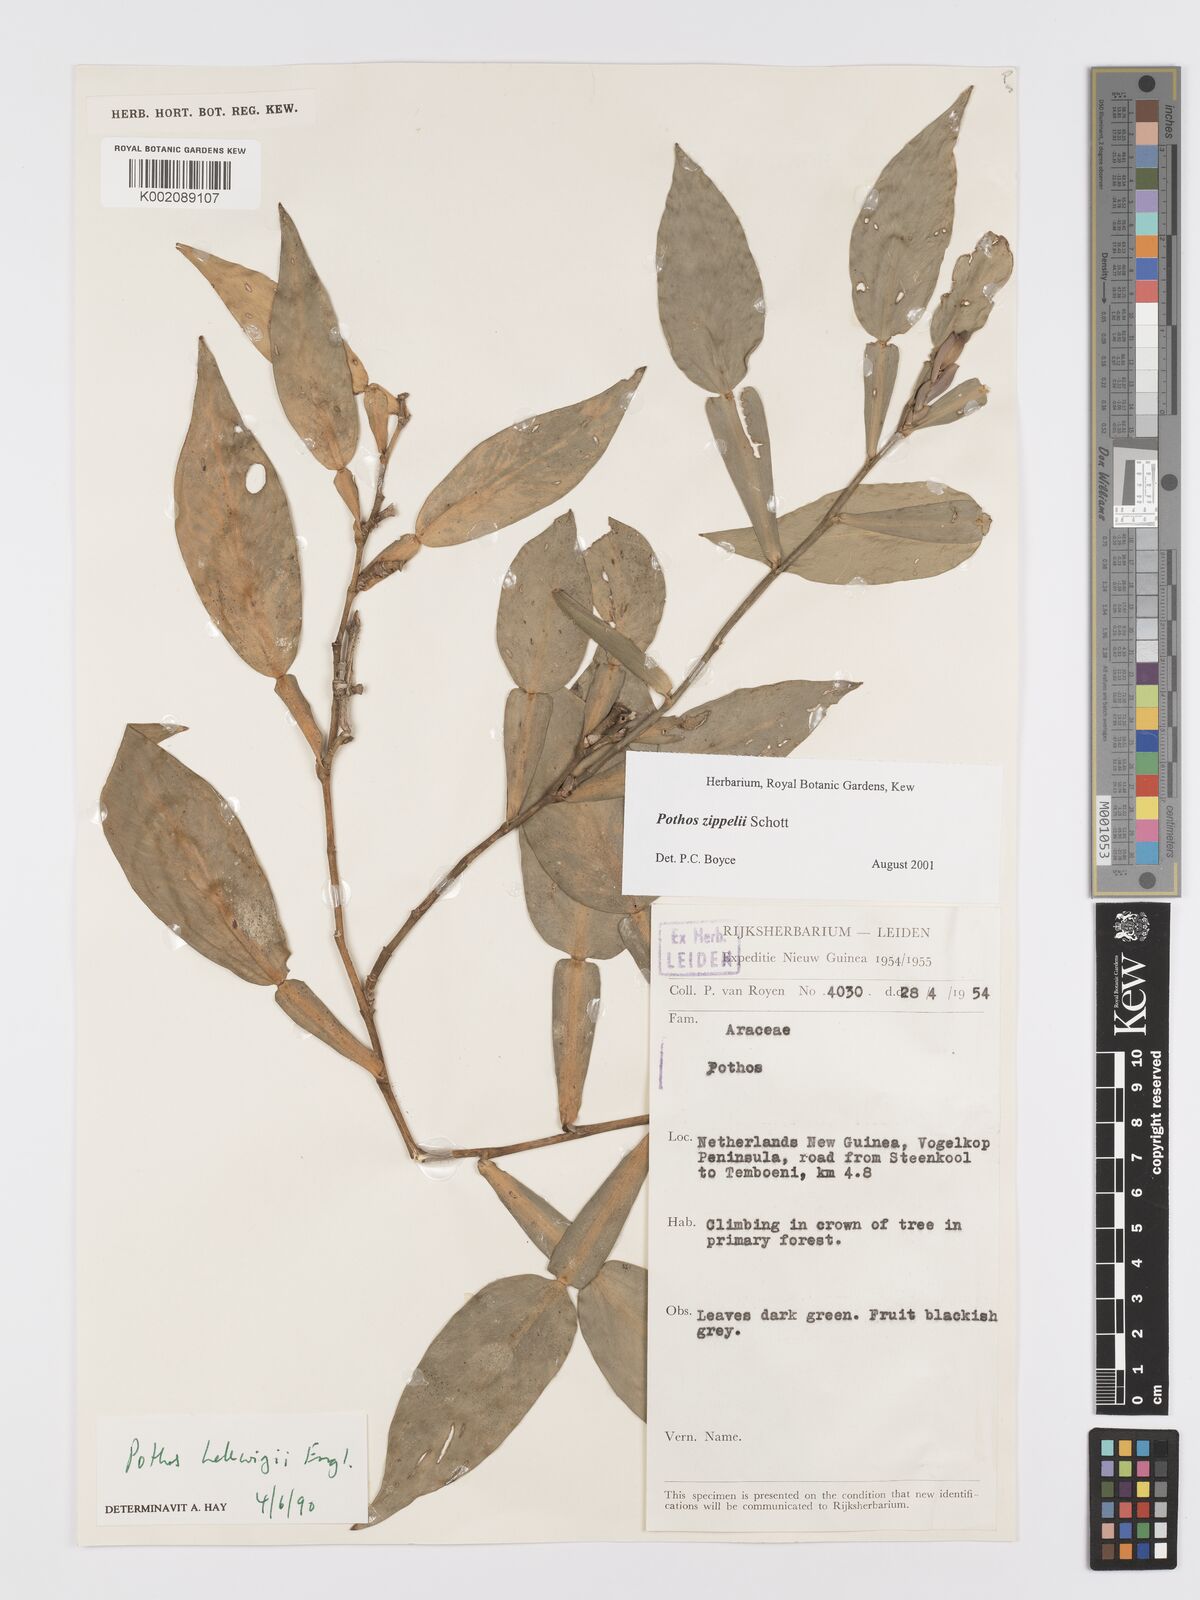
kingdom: Plantae
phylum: Tracheophyta
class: Liliopsida
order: Alismatales
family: Araceae
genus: Pothos
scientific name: Pothos zippelii
